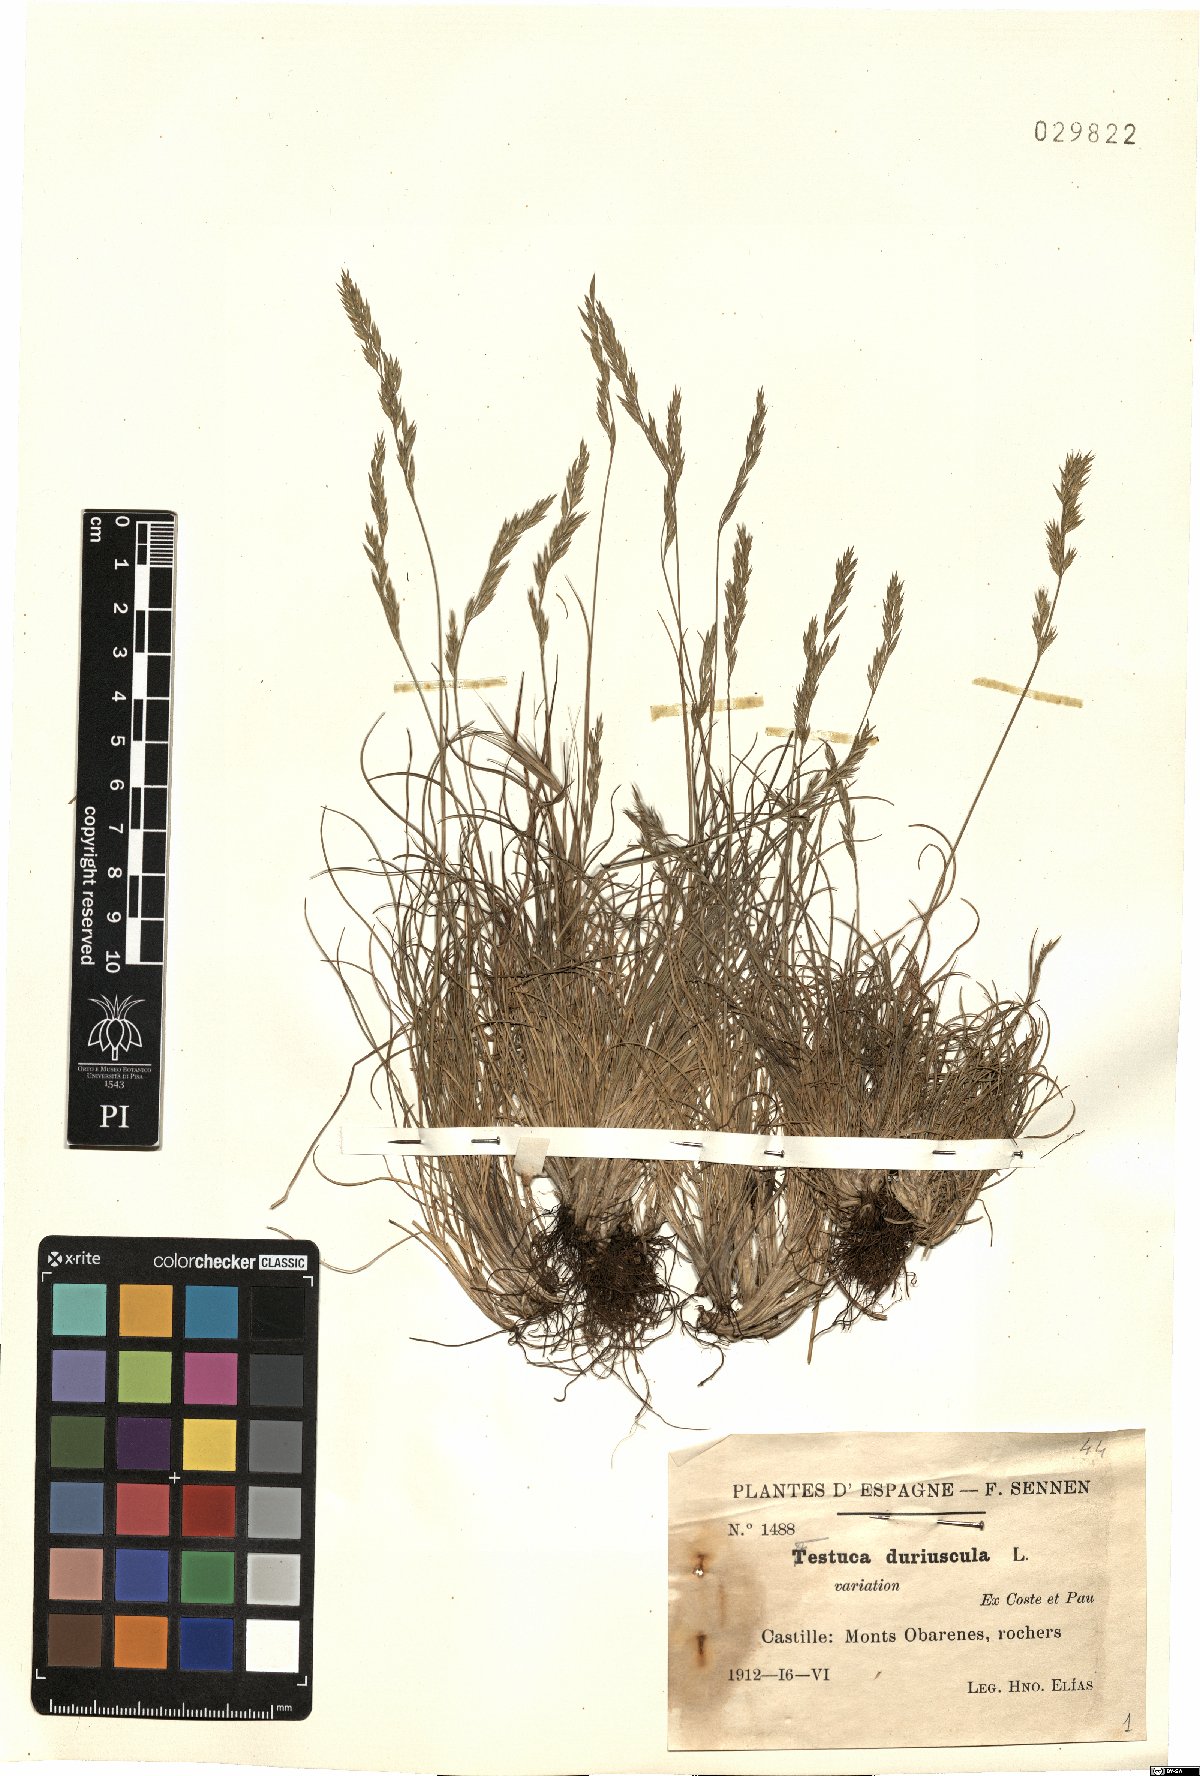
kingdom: Plantae
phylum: Tracheophyta
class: Liliopsida
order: Poales
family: Poaceae
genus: Festuca
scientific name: Festuca rubra
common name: Red fescue
